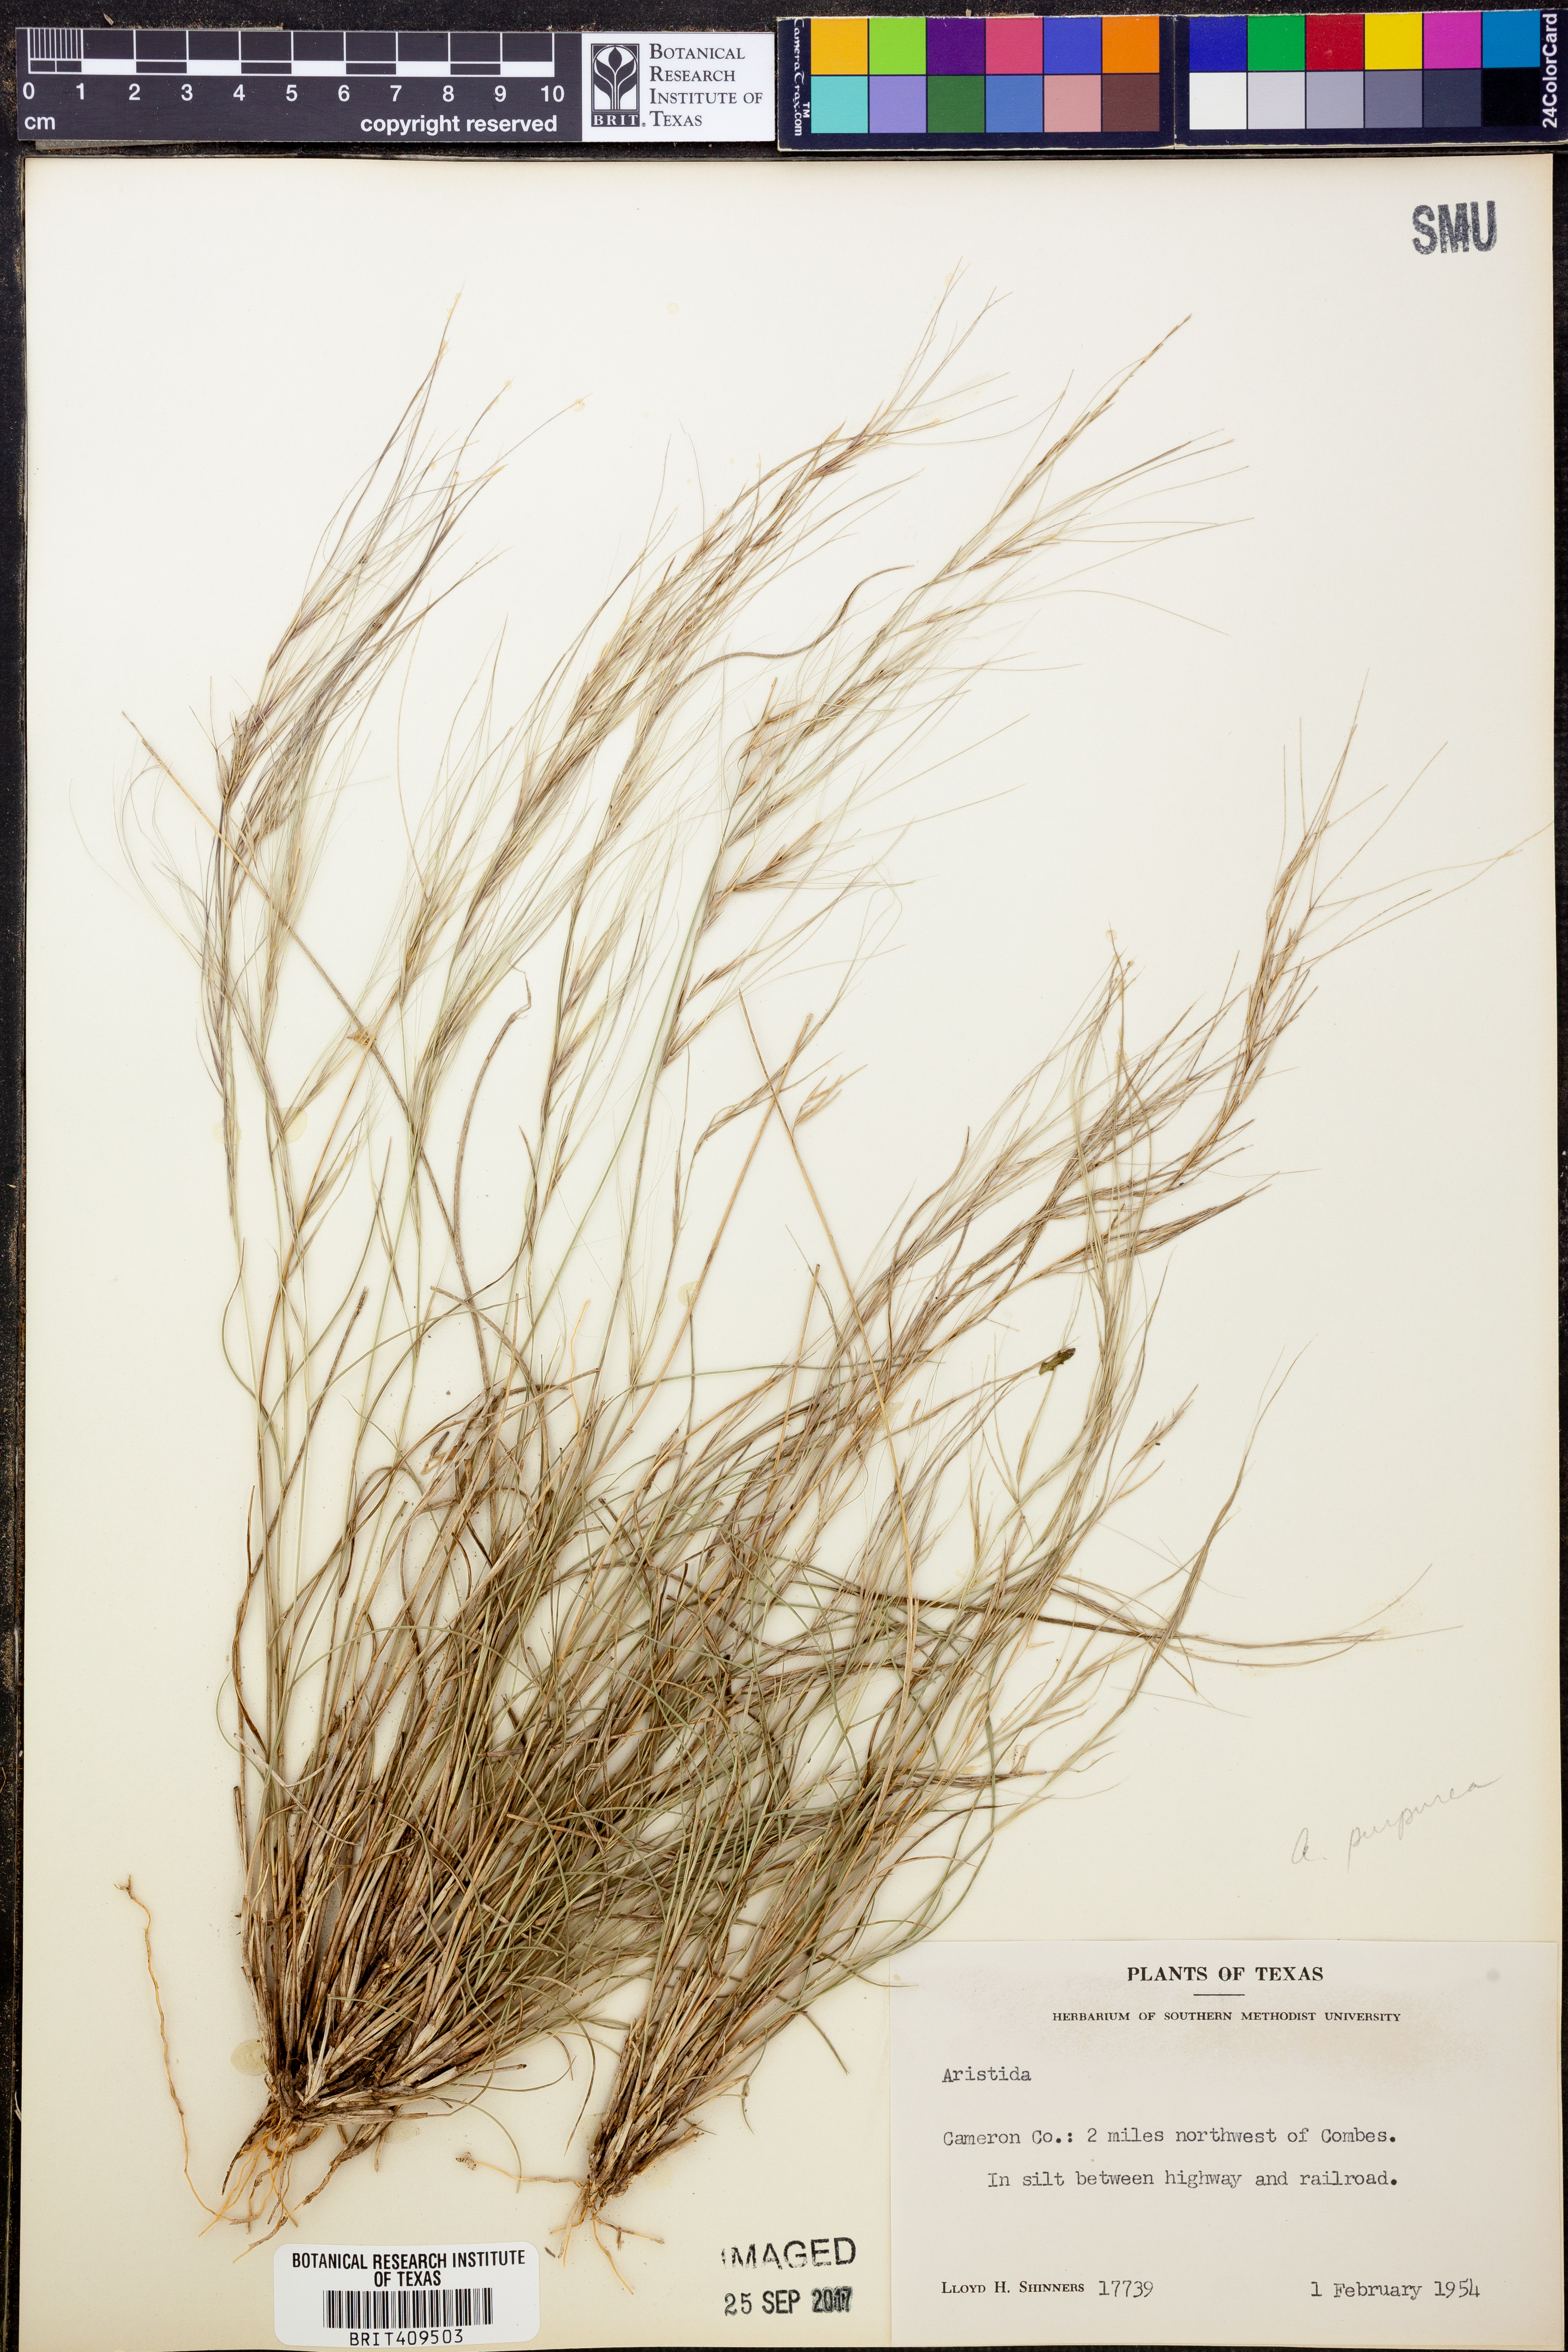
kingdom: Plantae
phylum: Tracheophyta
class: Liliopsida
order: Poales
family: Poaceae
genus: Aristida
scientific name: Aristida purpurea
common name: Purple threeawn
